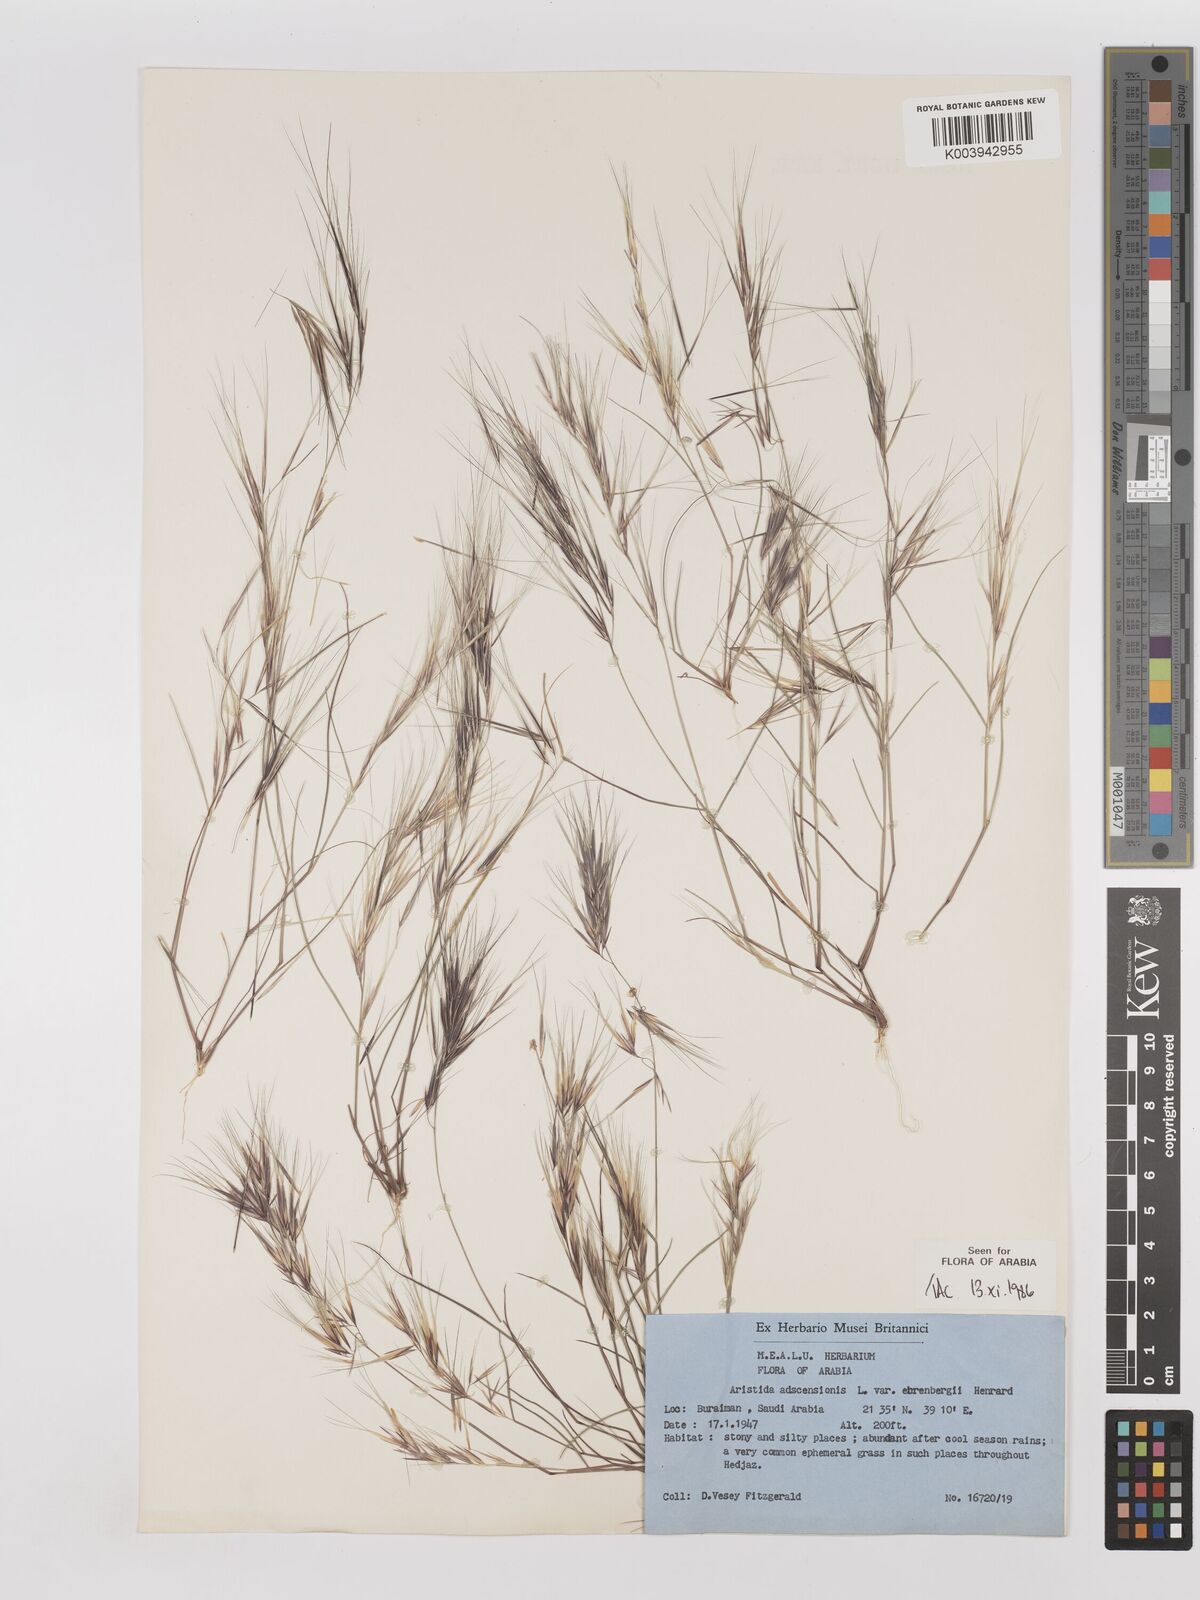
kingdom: Plantae
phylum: Tracheophyta
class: Liliopsida
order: Poales
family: Poaceae
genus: Aristida
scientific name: Aristida adscensionis
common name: Sixweeks threeawn
